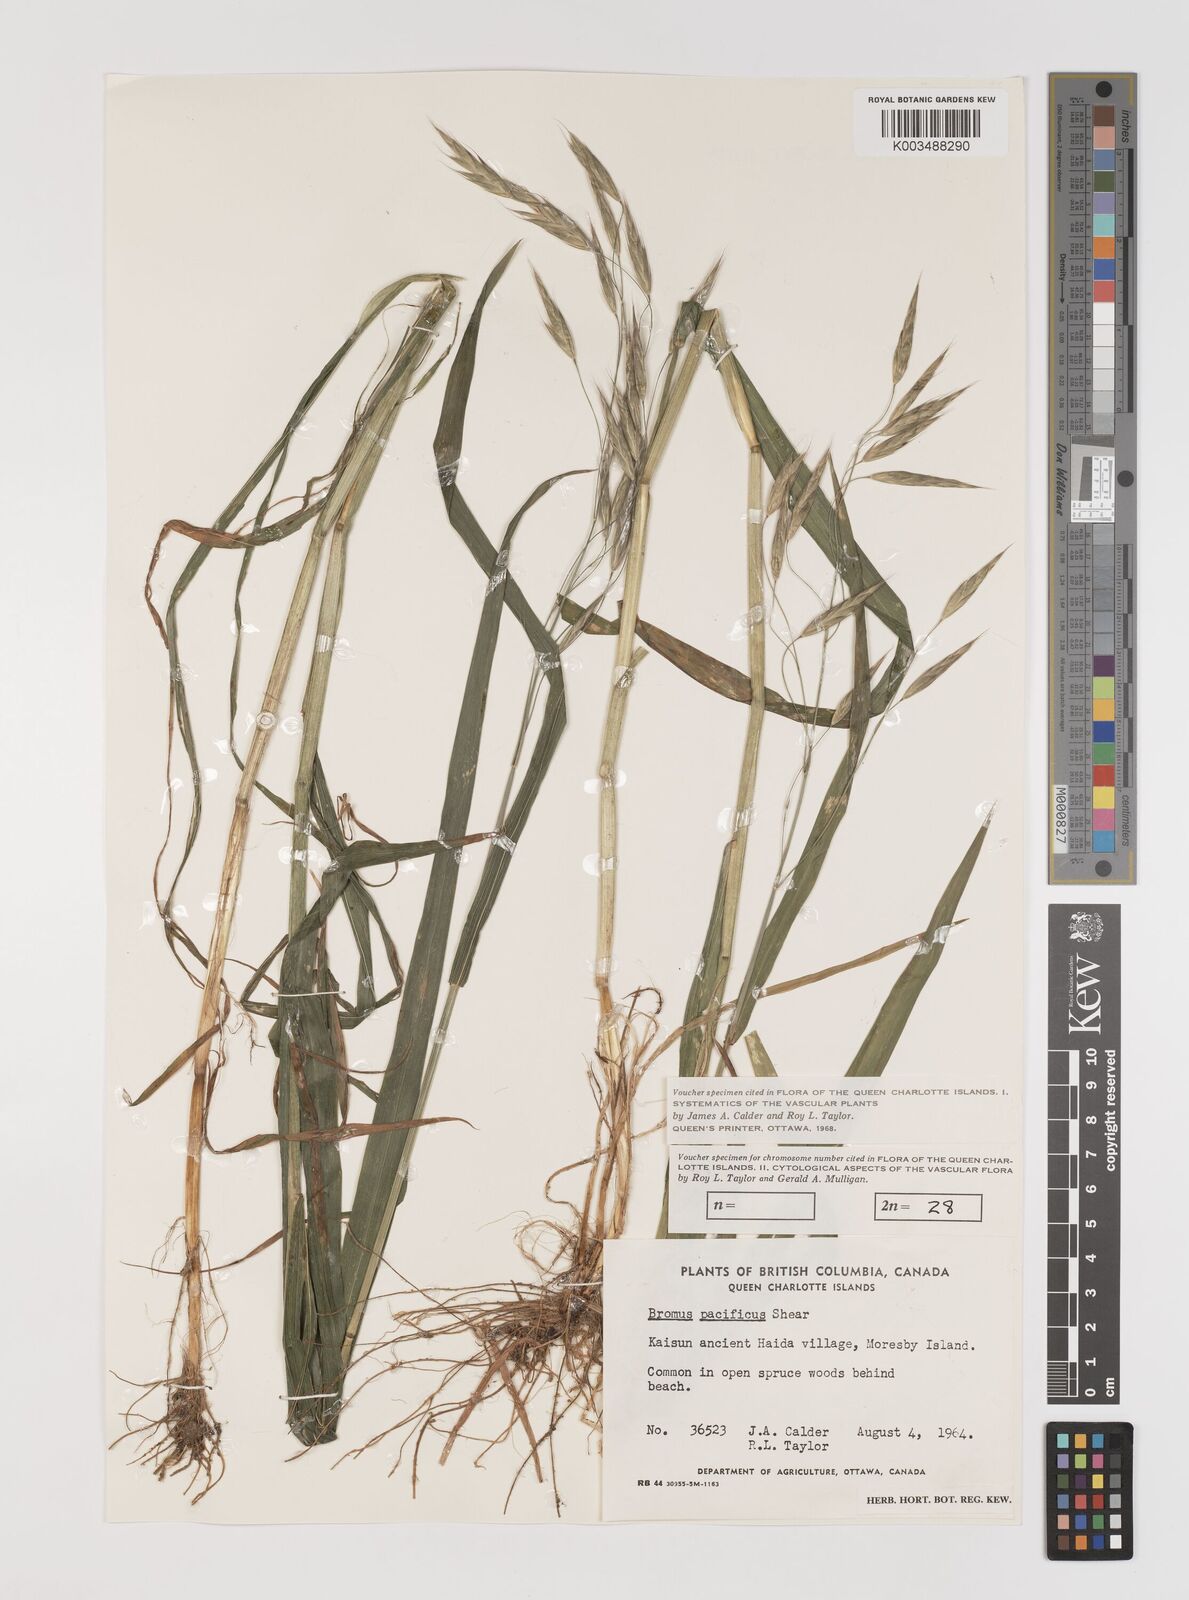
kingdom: Plantae
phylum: Tracheophyta
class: Liliopsida
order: Poales
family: Poaceae
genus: Bromus
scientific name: Bromus pacificus
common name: Pacific brome
